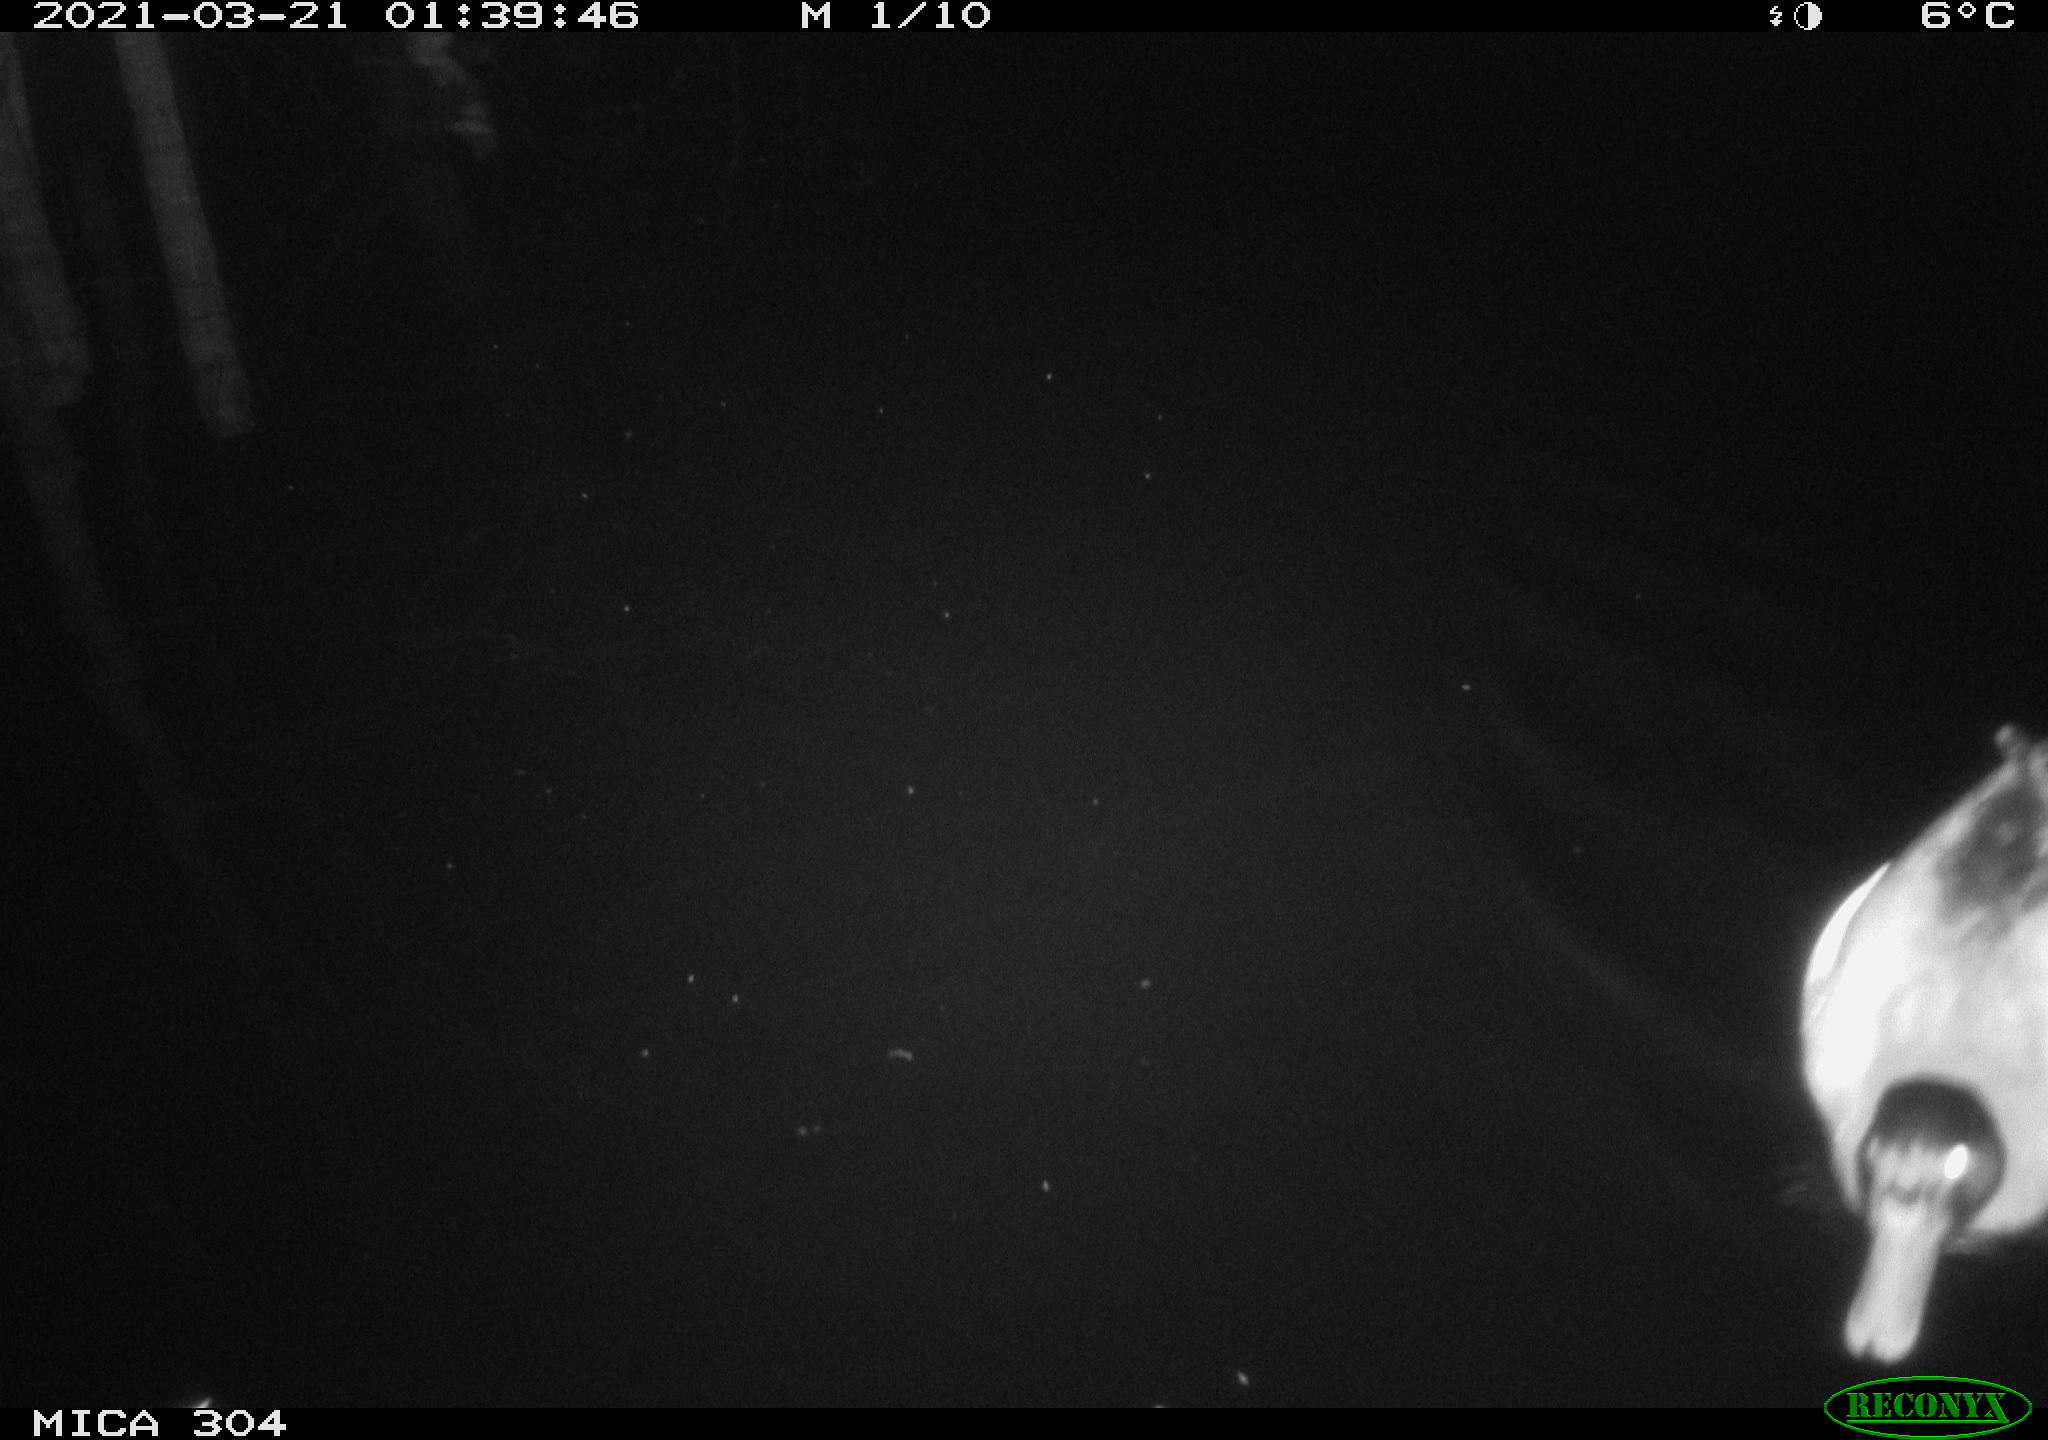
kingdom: Animalia
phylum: Chordata
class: Aves
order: Anseriformes
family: Anatidae
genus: Anas
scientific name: Anas platyrhynchos
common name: Mallard
